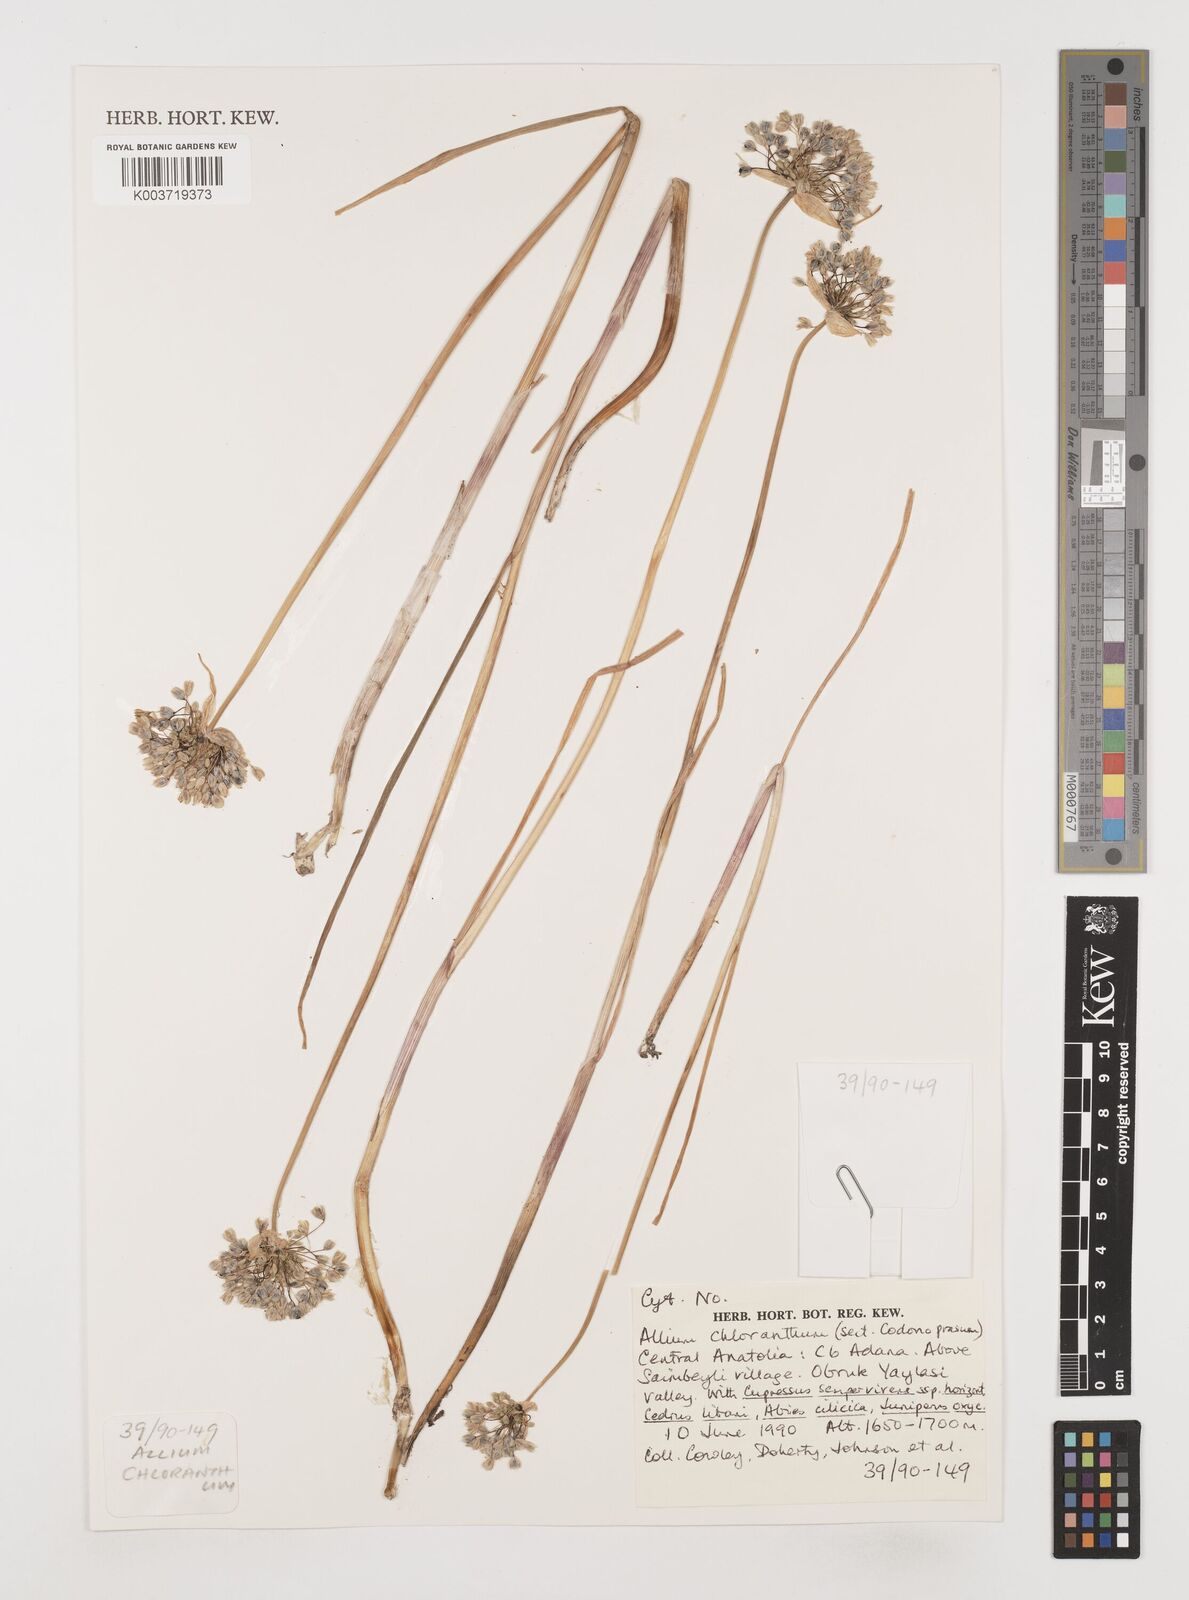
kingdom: Plantae
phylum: Tracheophyta
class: Liliopsida
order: Asparagales
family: Amaryllidaceae
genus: Allium
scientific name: Allium chloranthum
